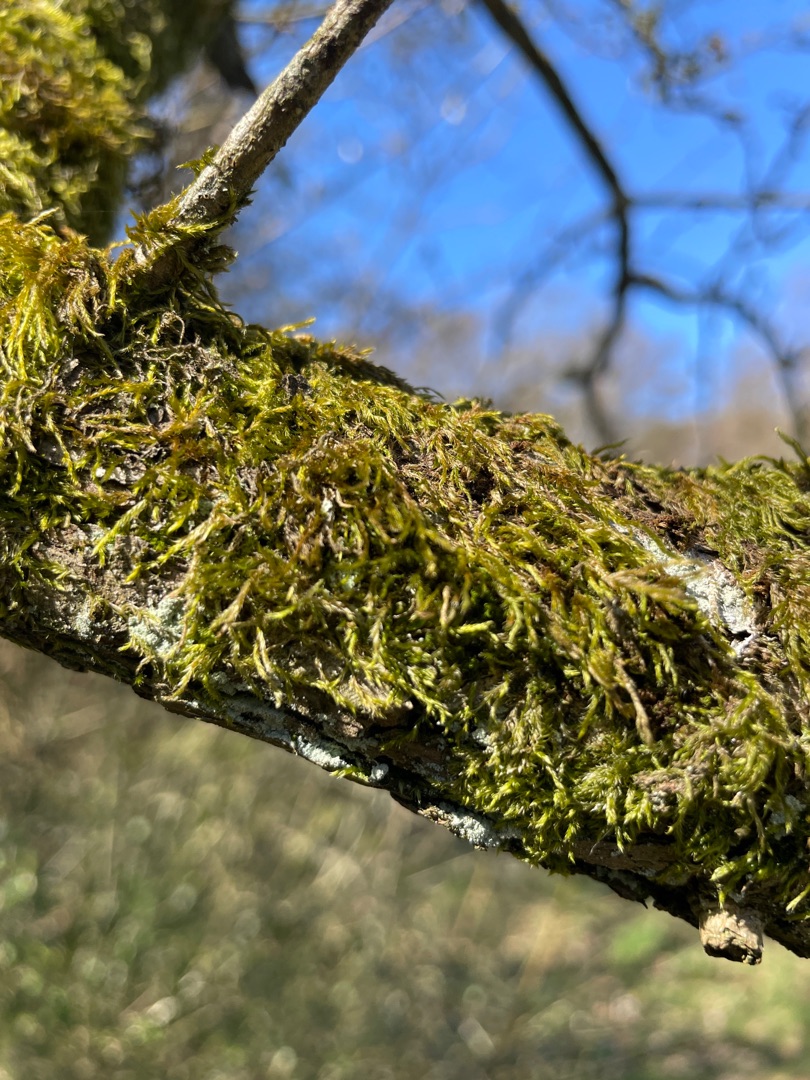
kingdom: Plantae
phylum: Bryophyta
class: Bryopsida
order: Hypnales
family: Hypnaceae
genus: Hypnum
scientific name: Hypnum cupressiforme
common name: Almindelig cypresmos
